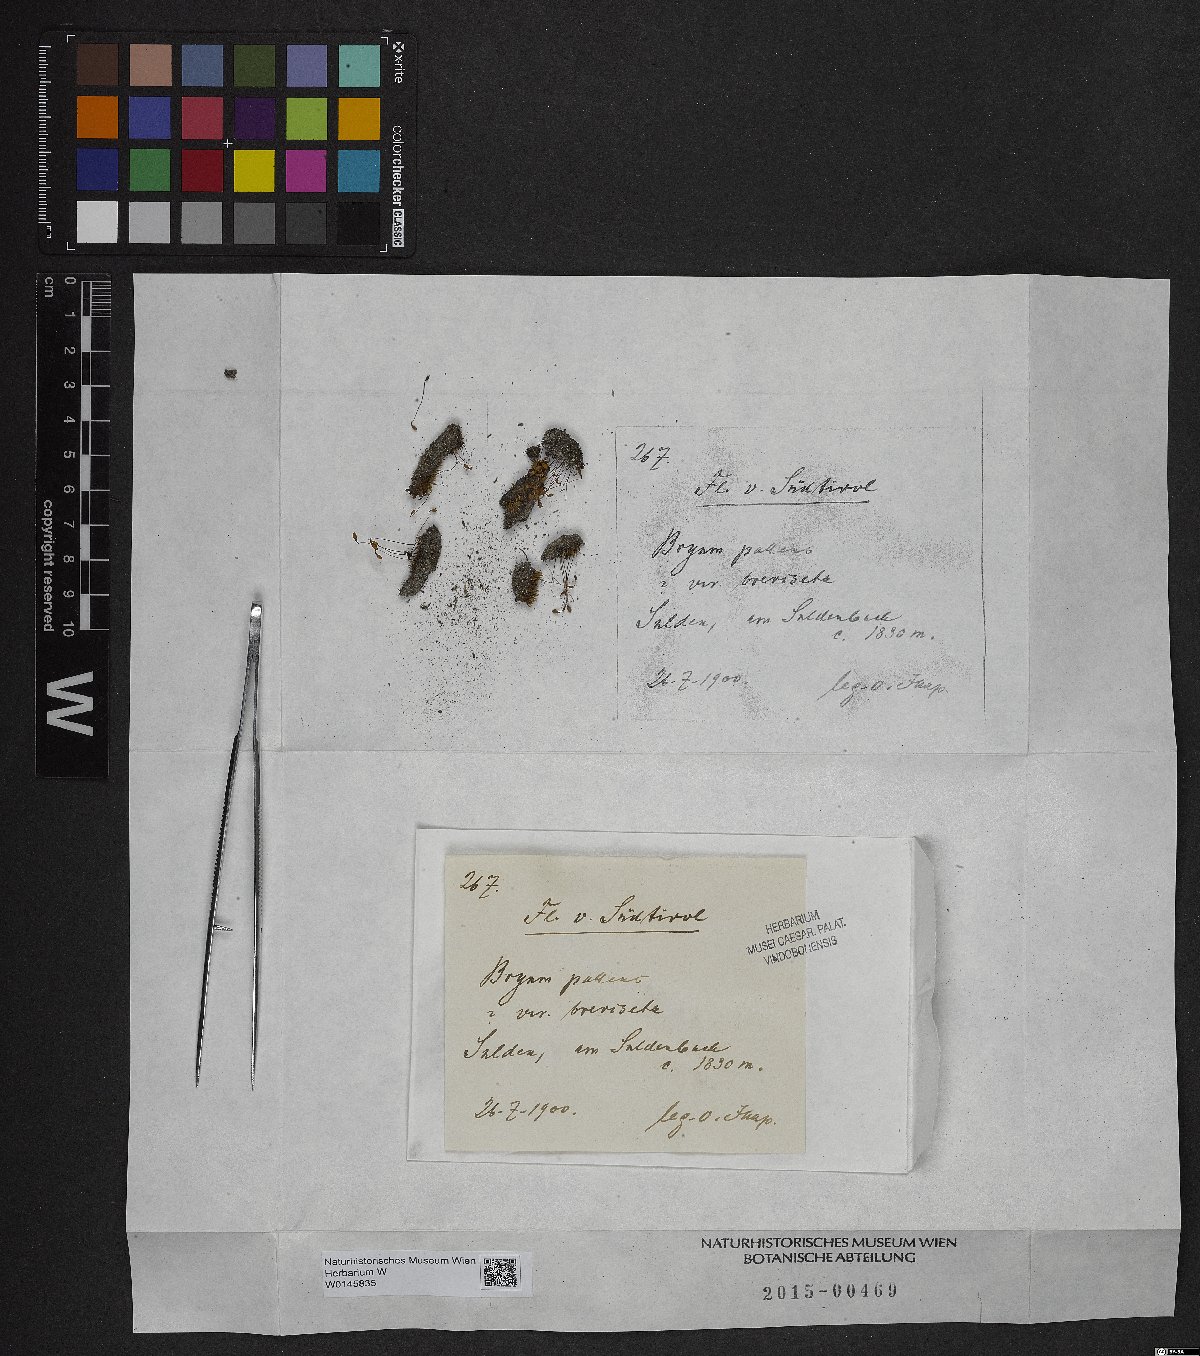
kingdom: Plantae
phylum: Bryophyta
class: Bryopsida
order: Bryales
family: Bryaceae
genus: Ptychostomum
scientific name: Ptychostomum pallens
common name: Pale thread-moss
